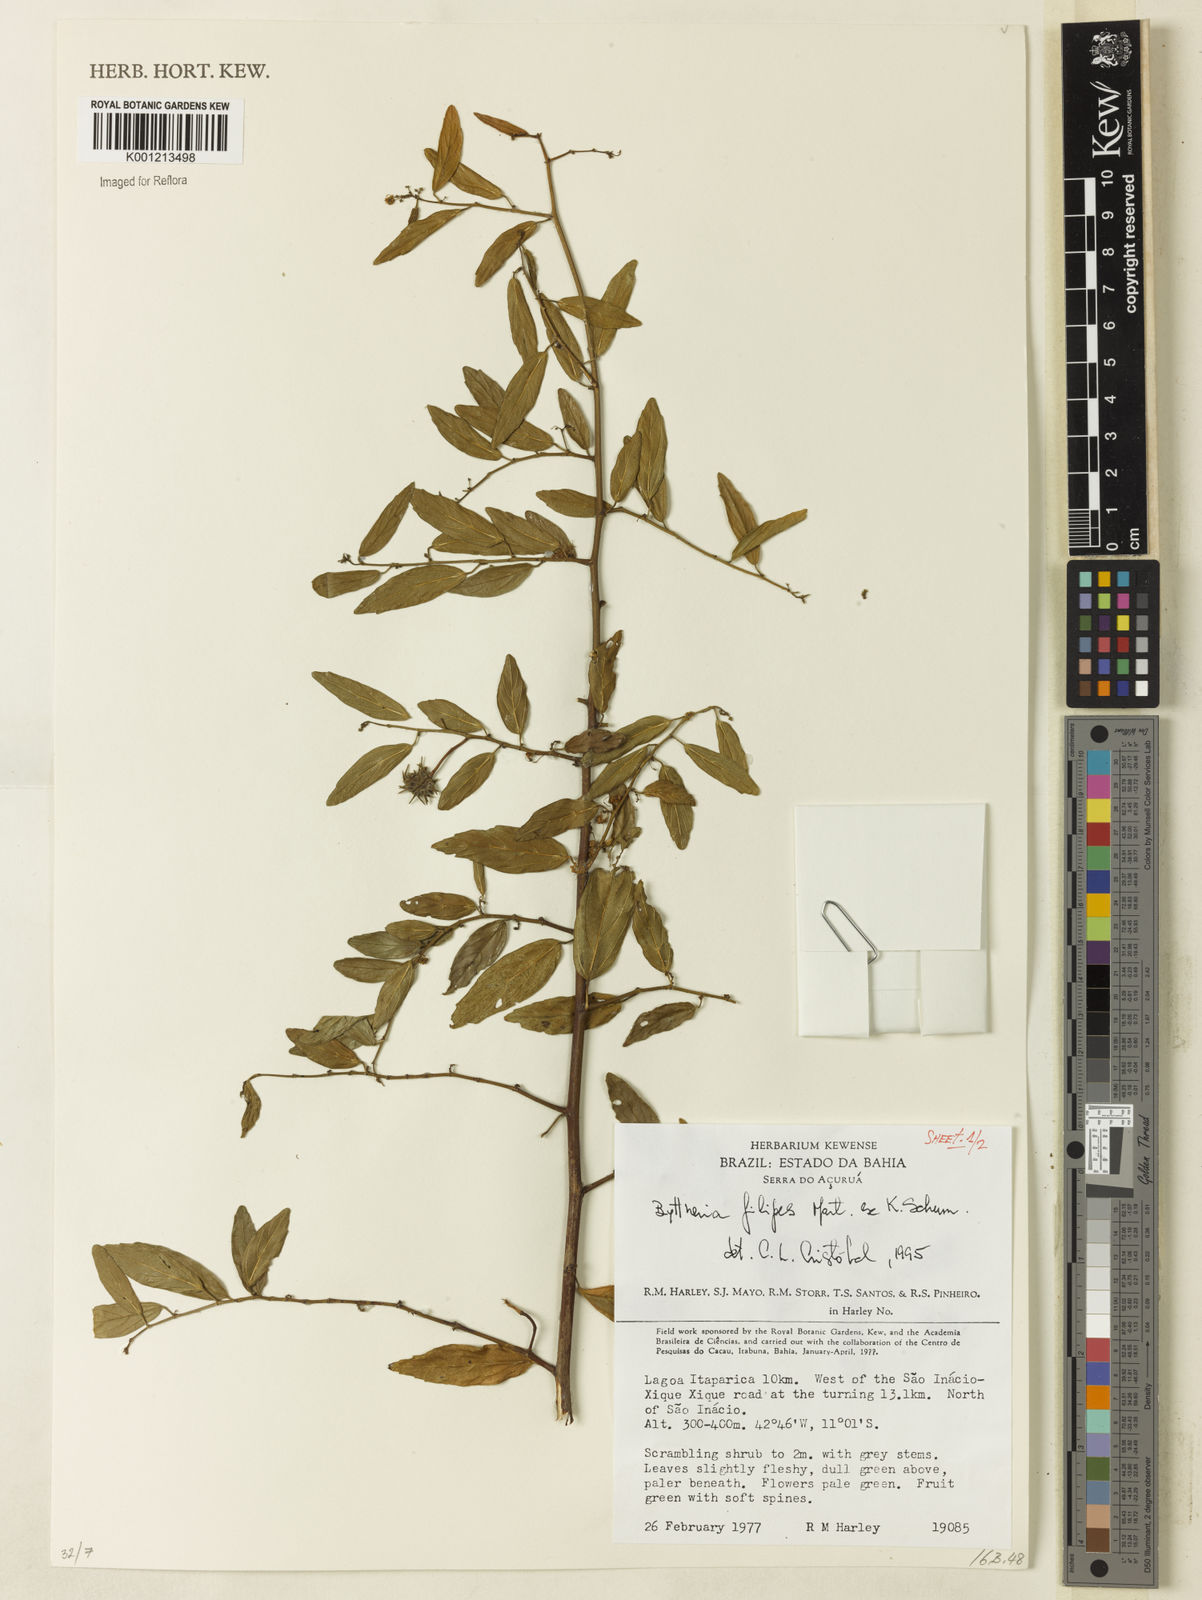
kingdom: Plantae
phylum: Tracheophyta
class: Magnoliopsida
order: Malvales
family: Malvaceae
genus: Byttneria
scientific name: Byttneria filipes
